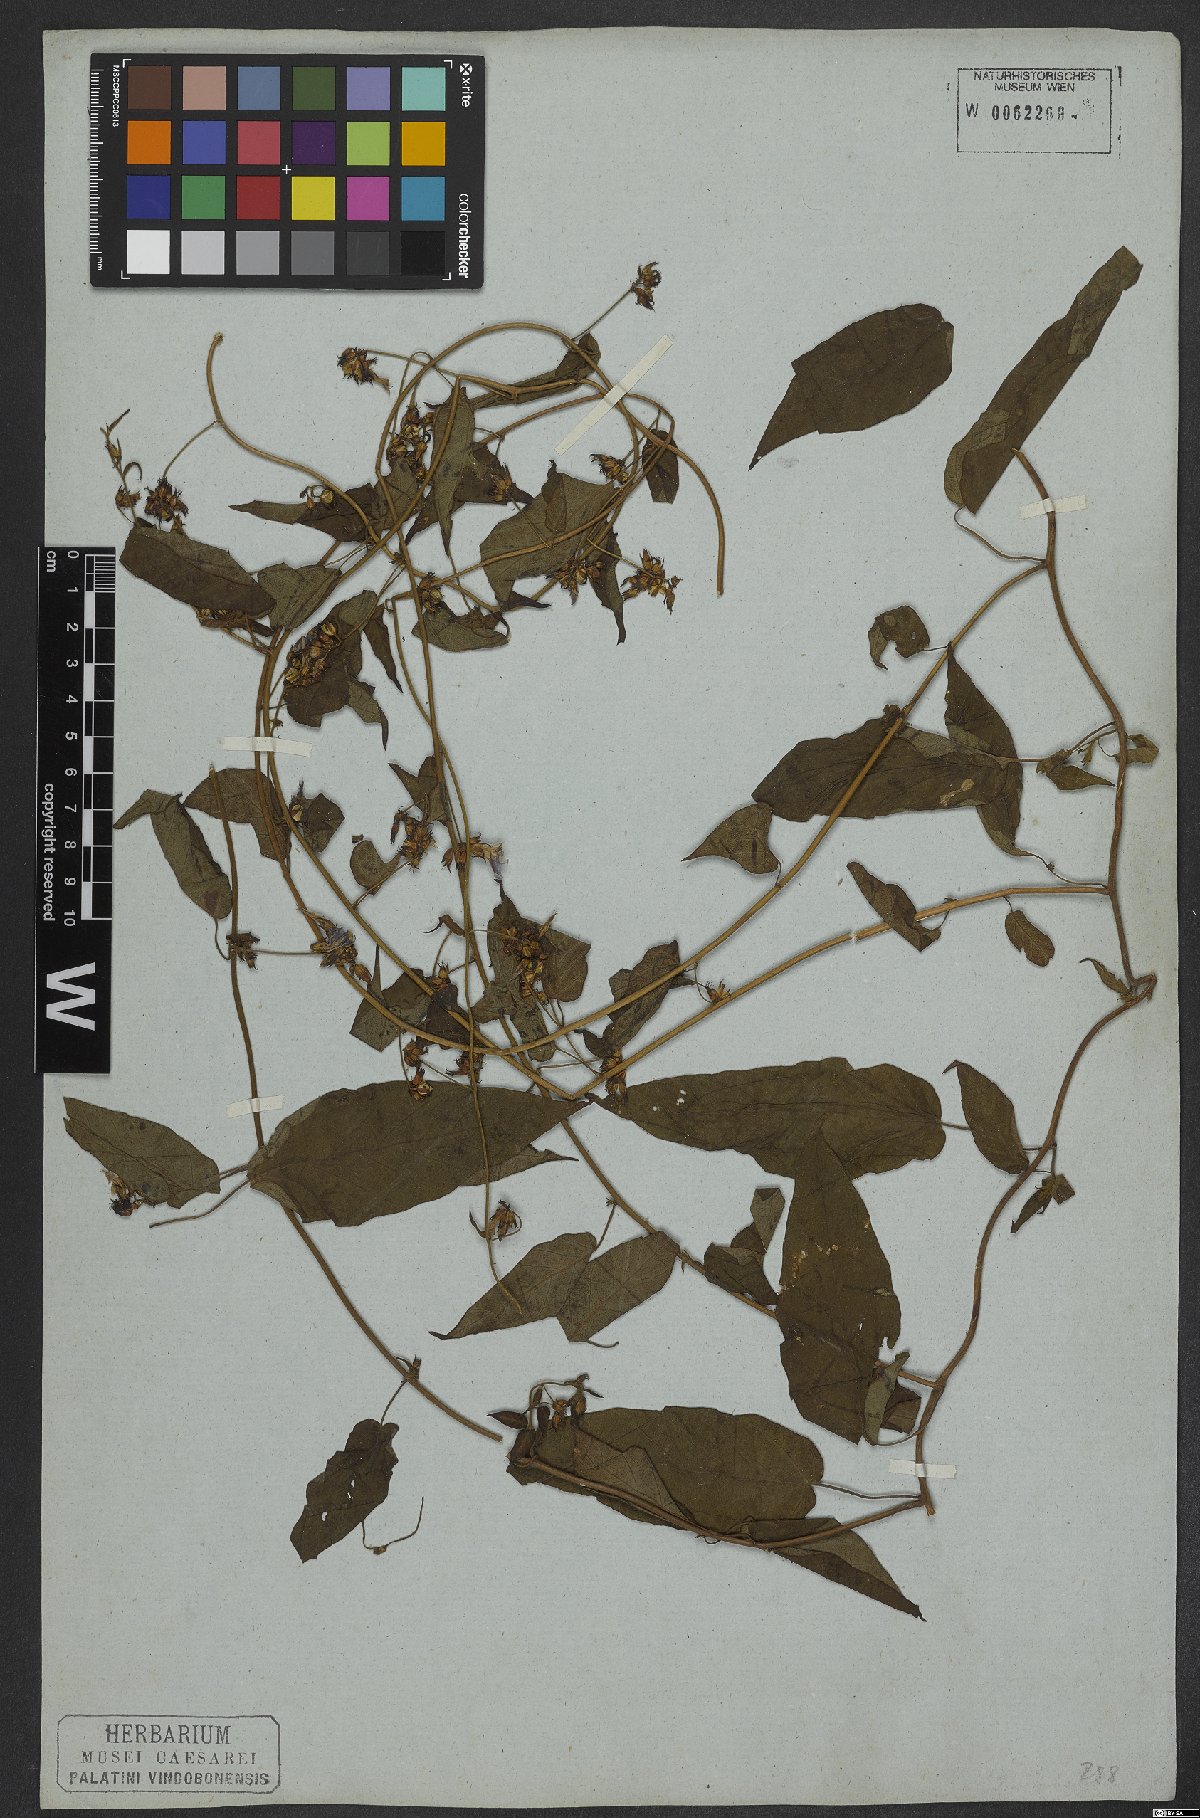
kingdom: Plantae
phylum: Tracheophyta
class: Magnoliopsida
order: Solanales
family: Convolvulaceae
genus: Jacquemontia
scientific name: Jacquemontia sphaerostigma
